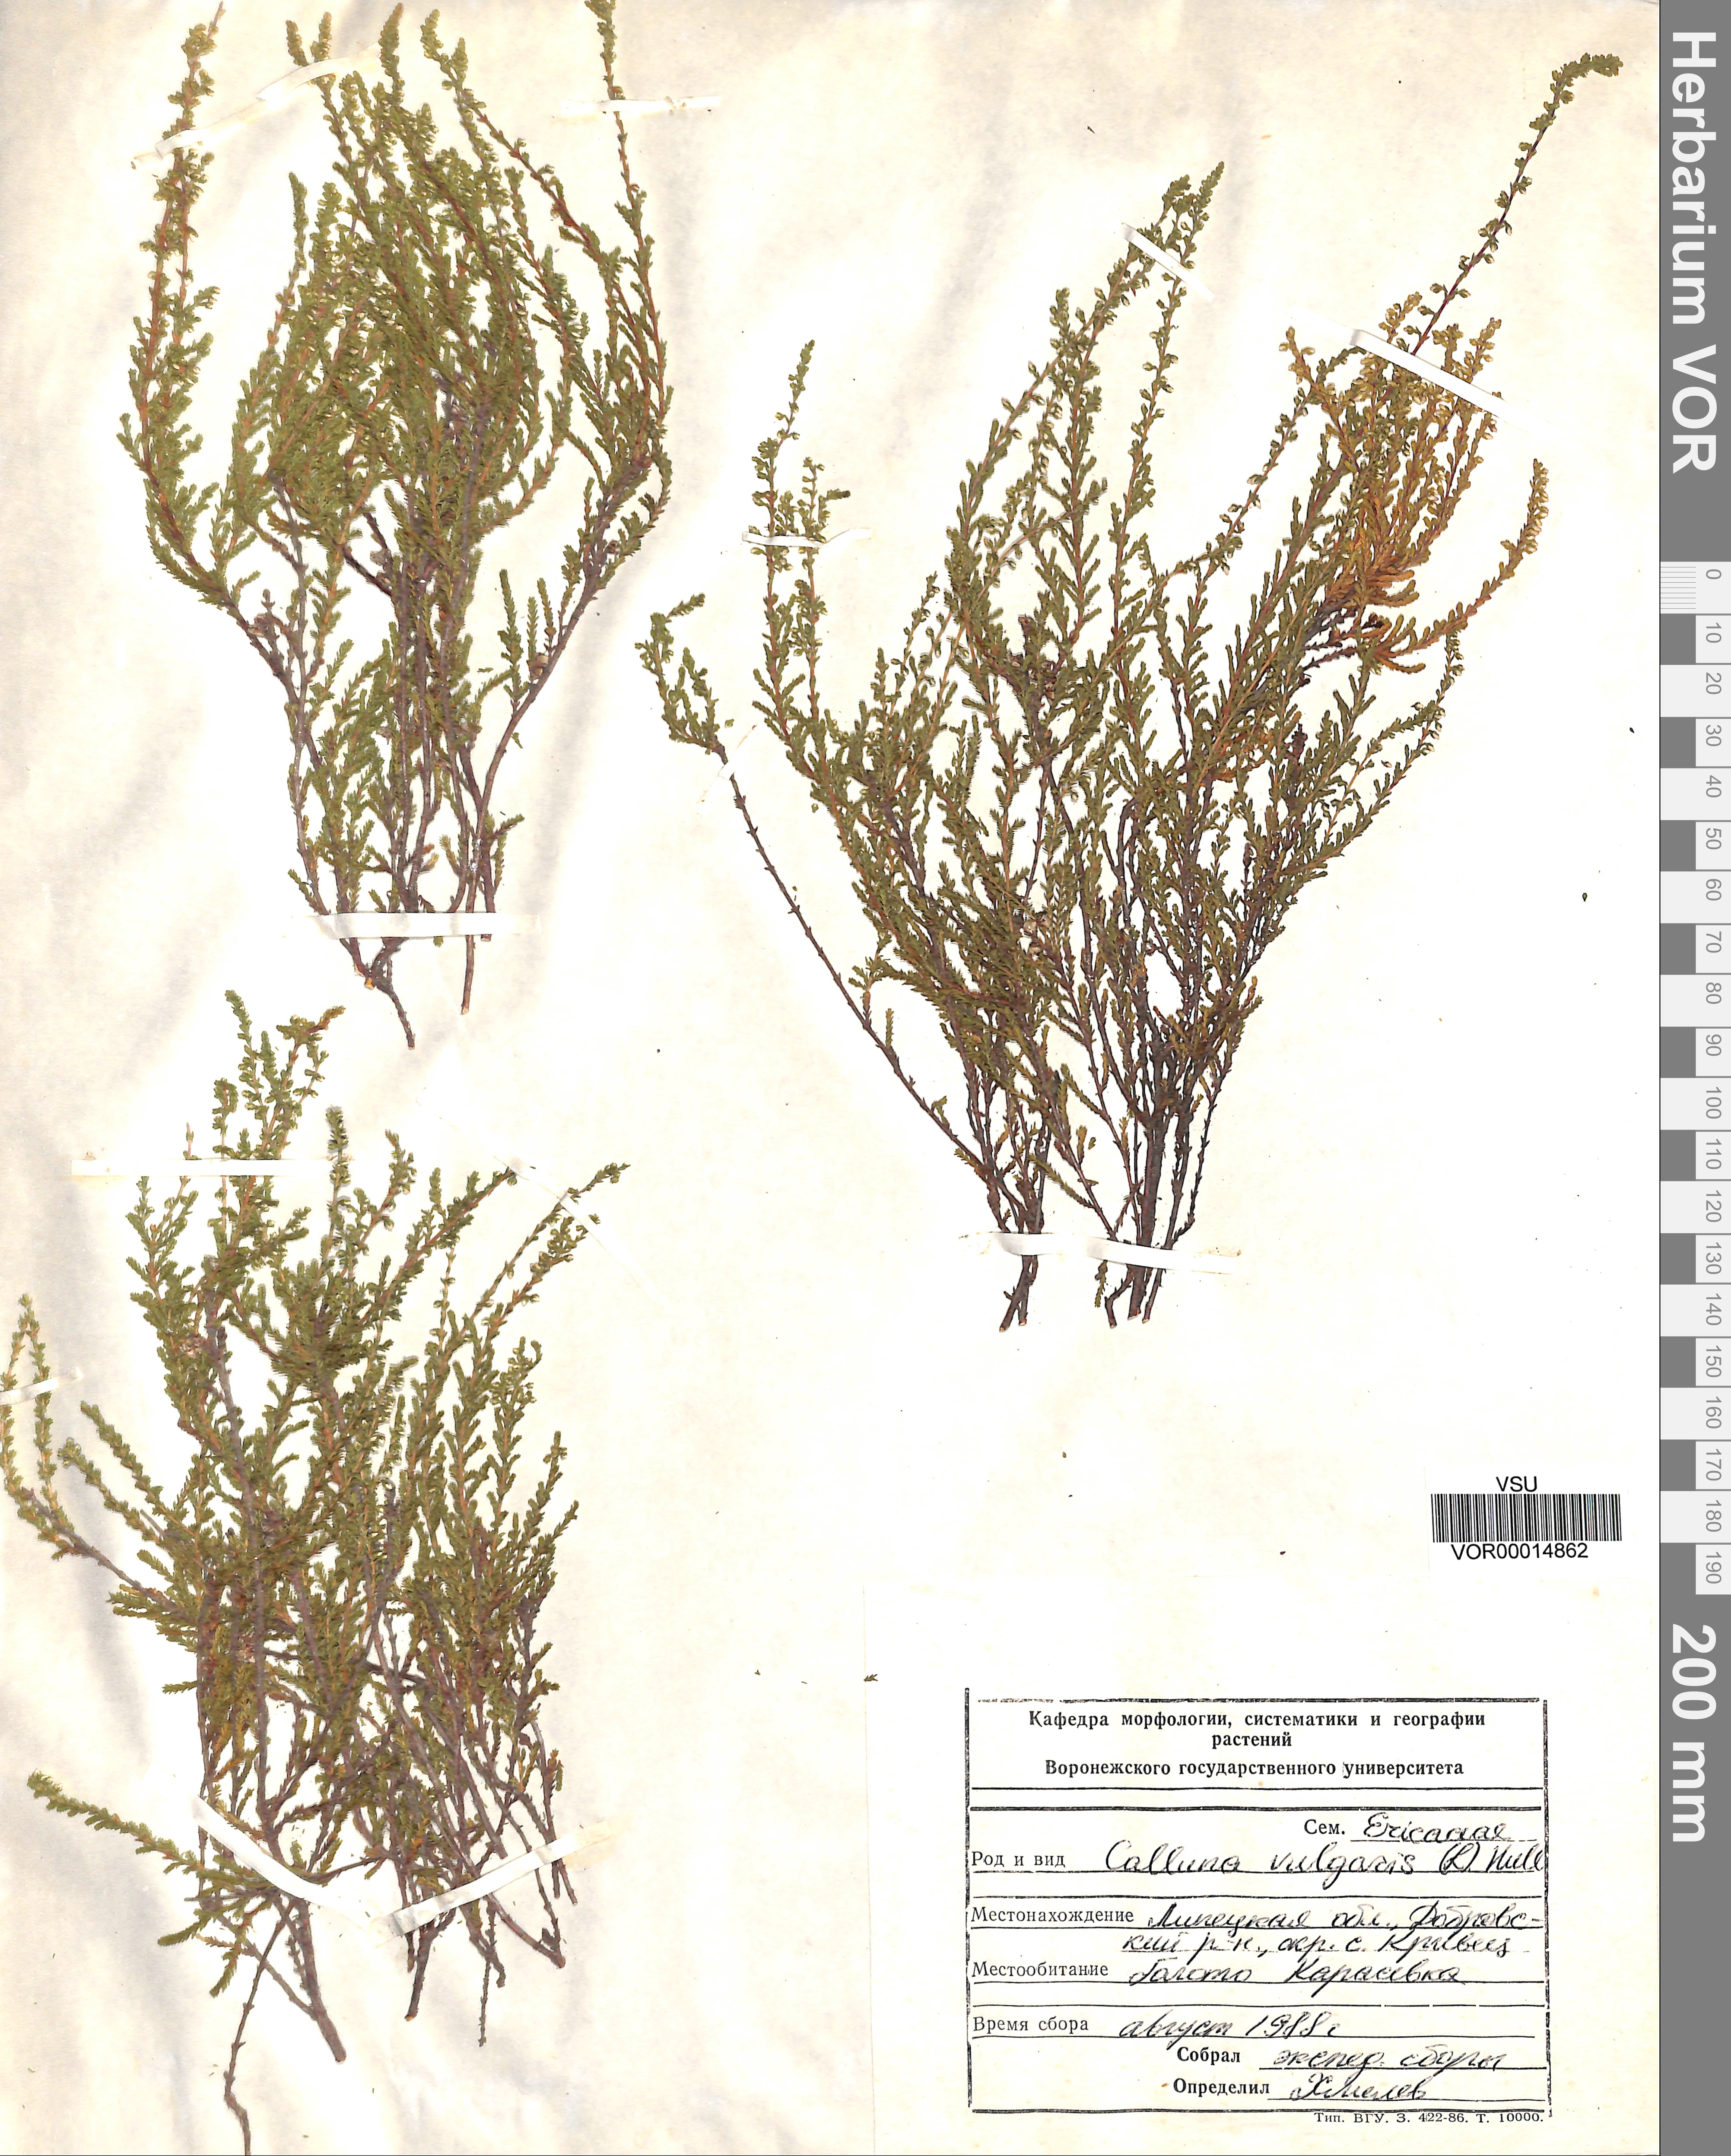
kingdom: Plantae
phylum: Tracheophyta
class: Magnoliopsida
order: Ericales
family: Ericaceae
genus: Calluna
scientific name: Calluna vulgaris
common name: Heather
